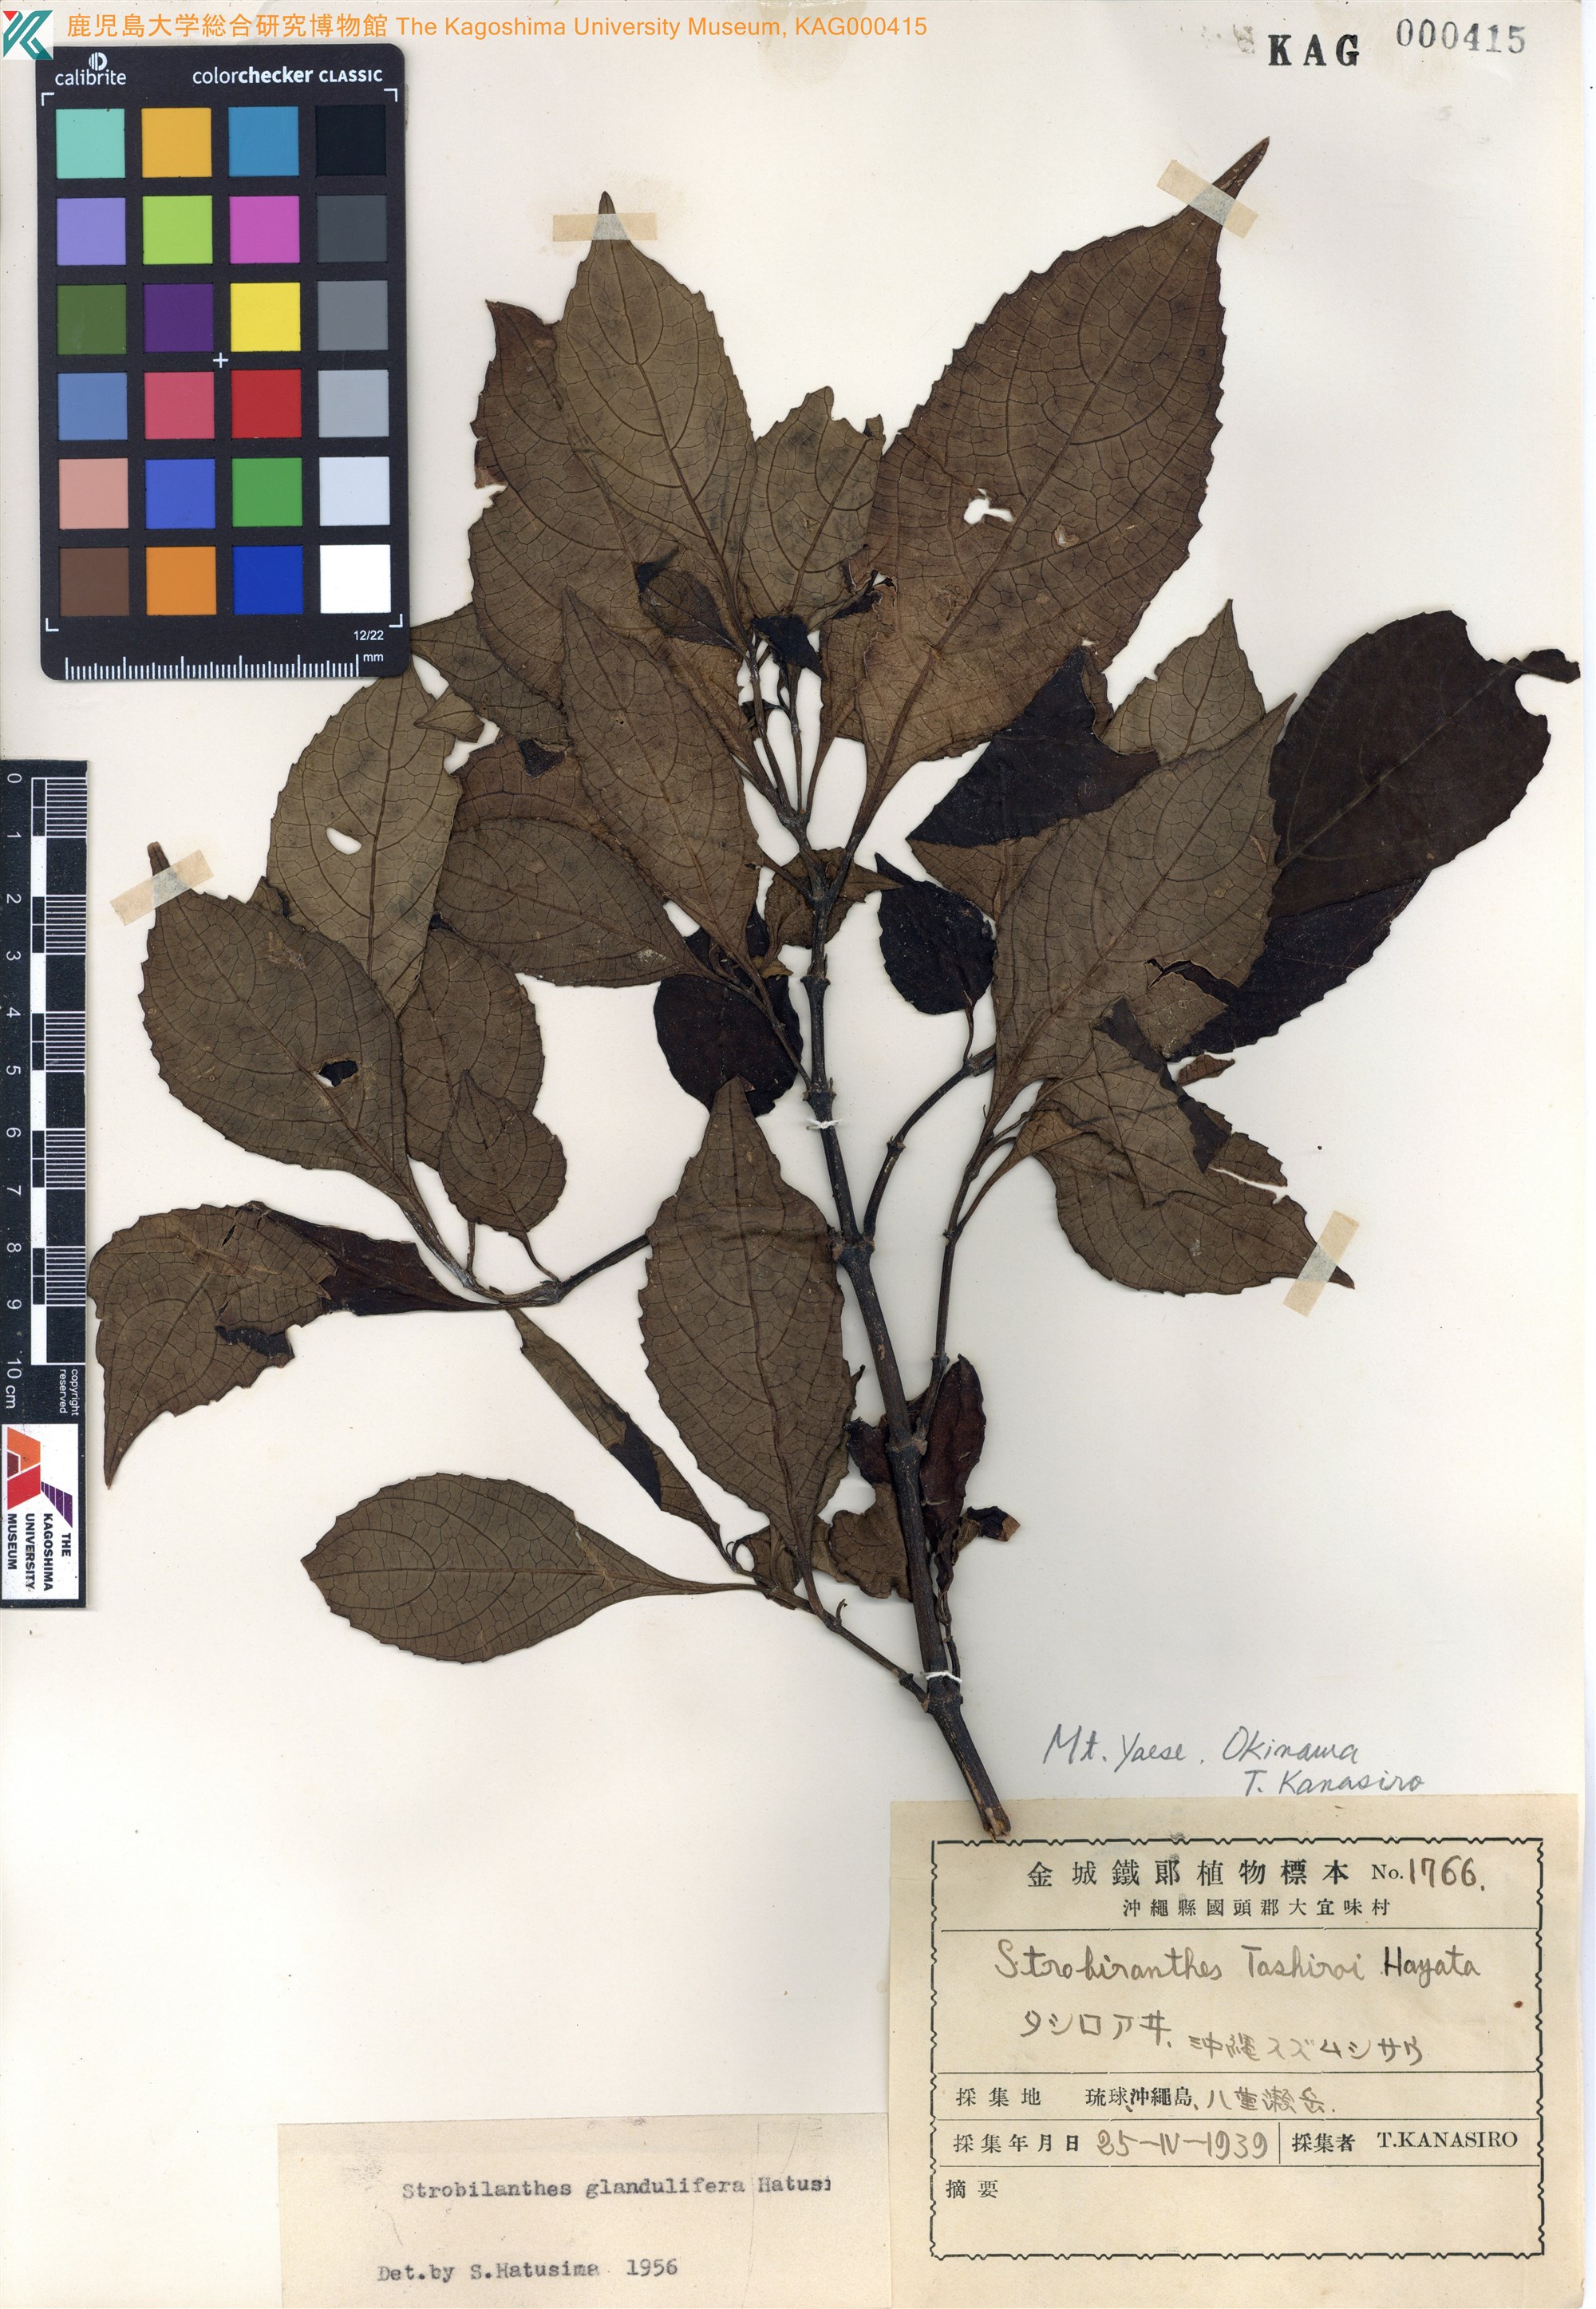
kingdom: Plantae
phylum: Tracheophyta
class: Magnoliopsida
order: Lamiales
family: Acanthaceae
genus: Strobilanthes
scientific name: Strobilanthes flexicaulis
